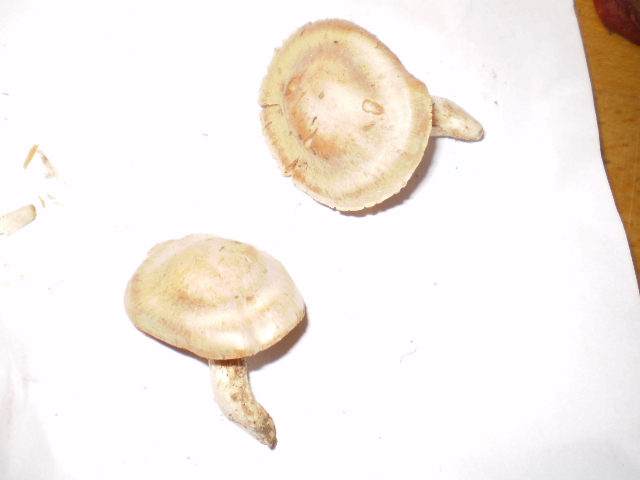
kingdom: Fungi
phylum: Basidiomycota
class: Agaricomycetes
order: Agaricales
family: Cortinariaceae
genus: Thaxterogaster
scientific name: Thaxterogaster barbatus
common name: elfenbens-slørhat
